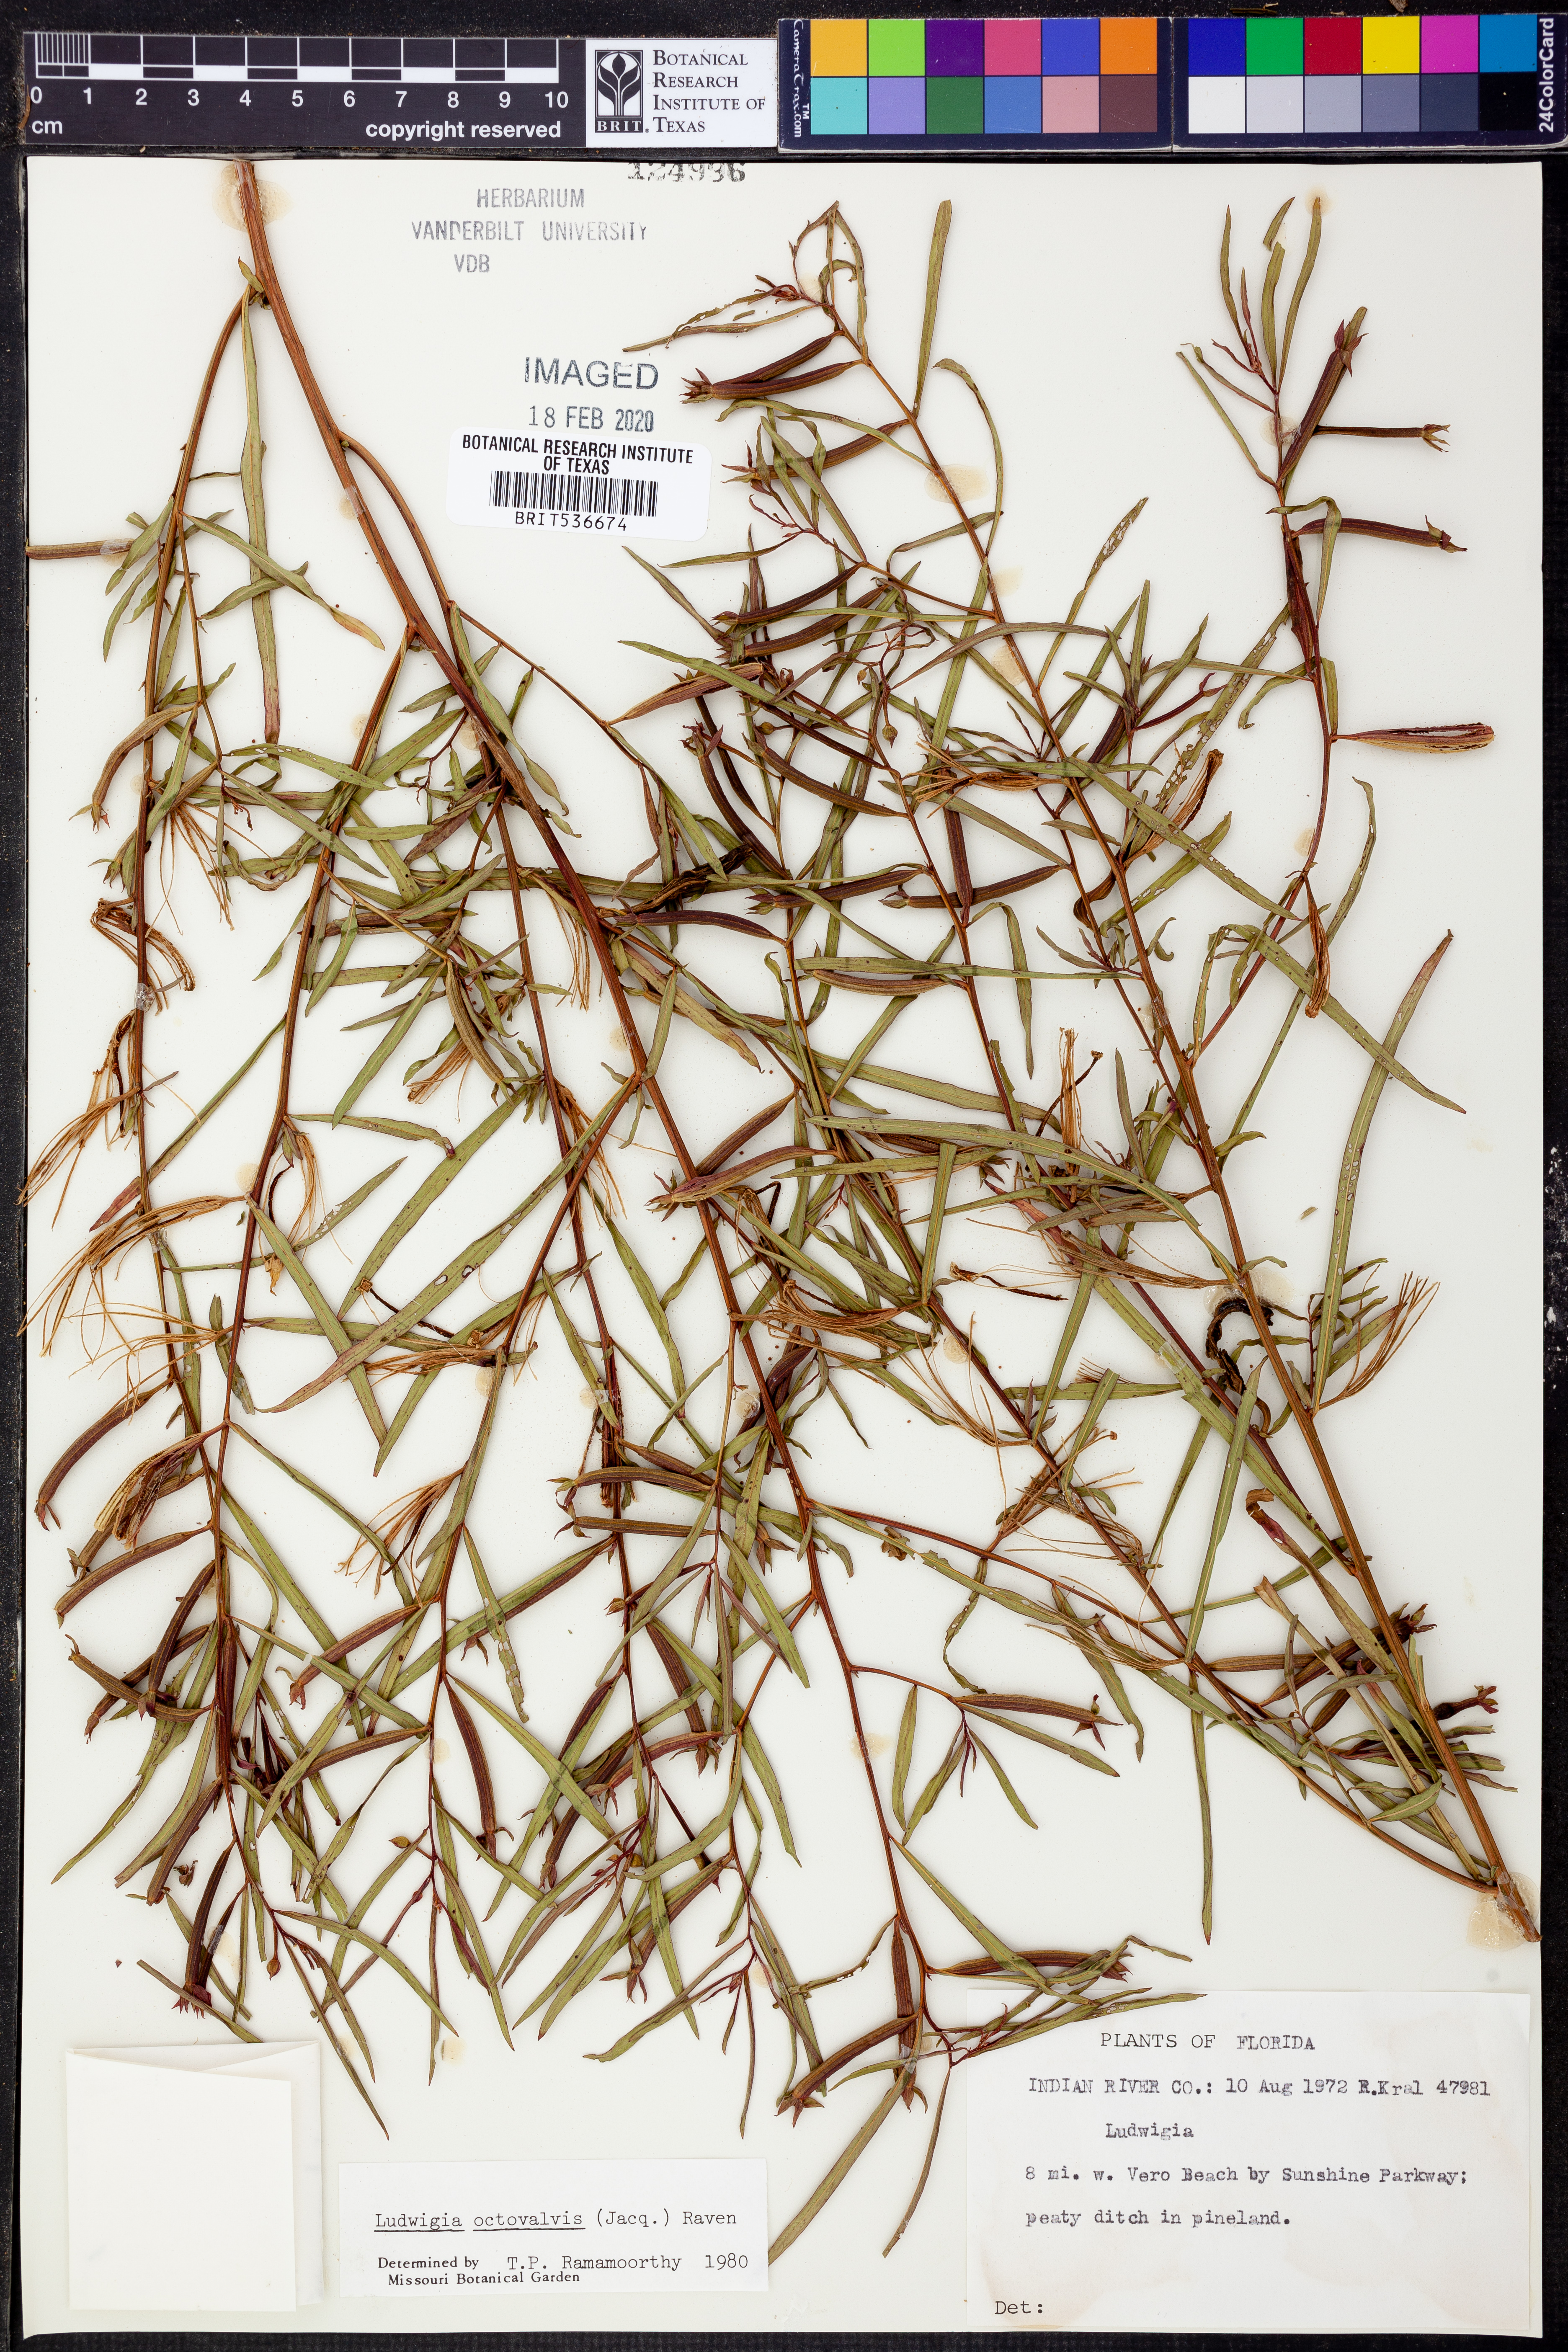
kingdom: Plantae
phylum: Tracheophyta
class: Magnoliopsida
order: Myrtales
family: Onagraceae
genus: Ludwigia
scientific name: Ludwigia octovalvis
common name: Water-primrose
